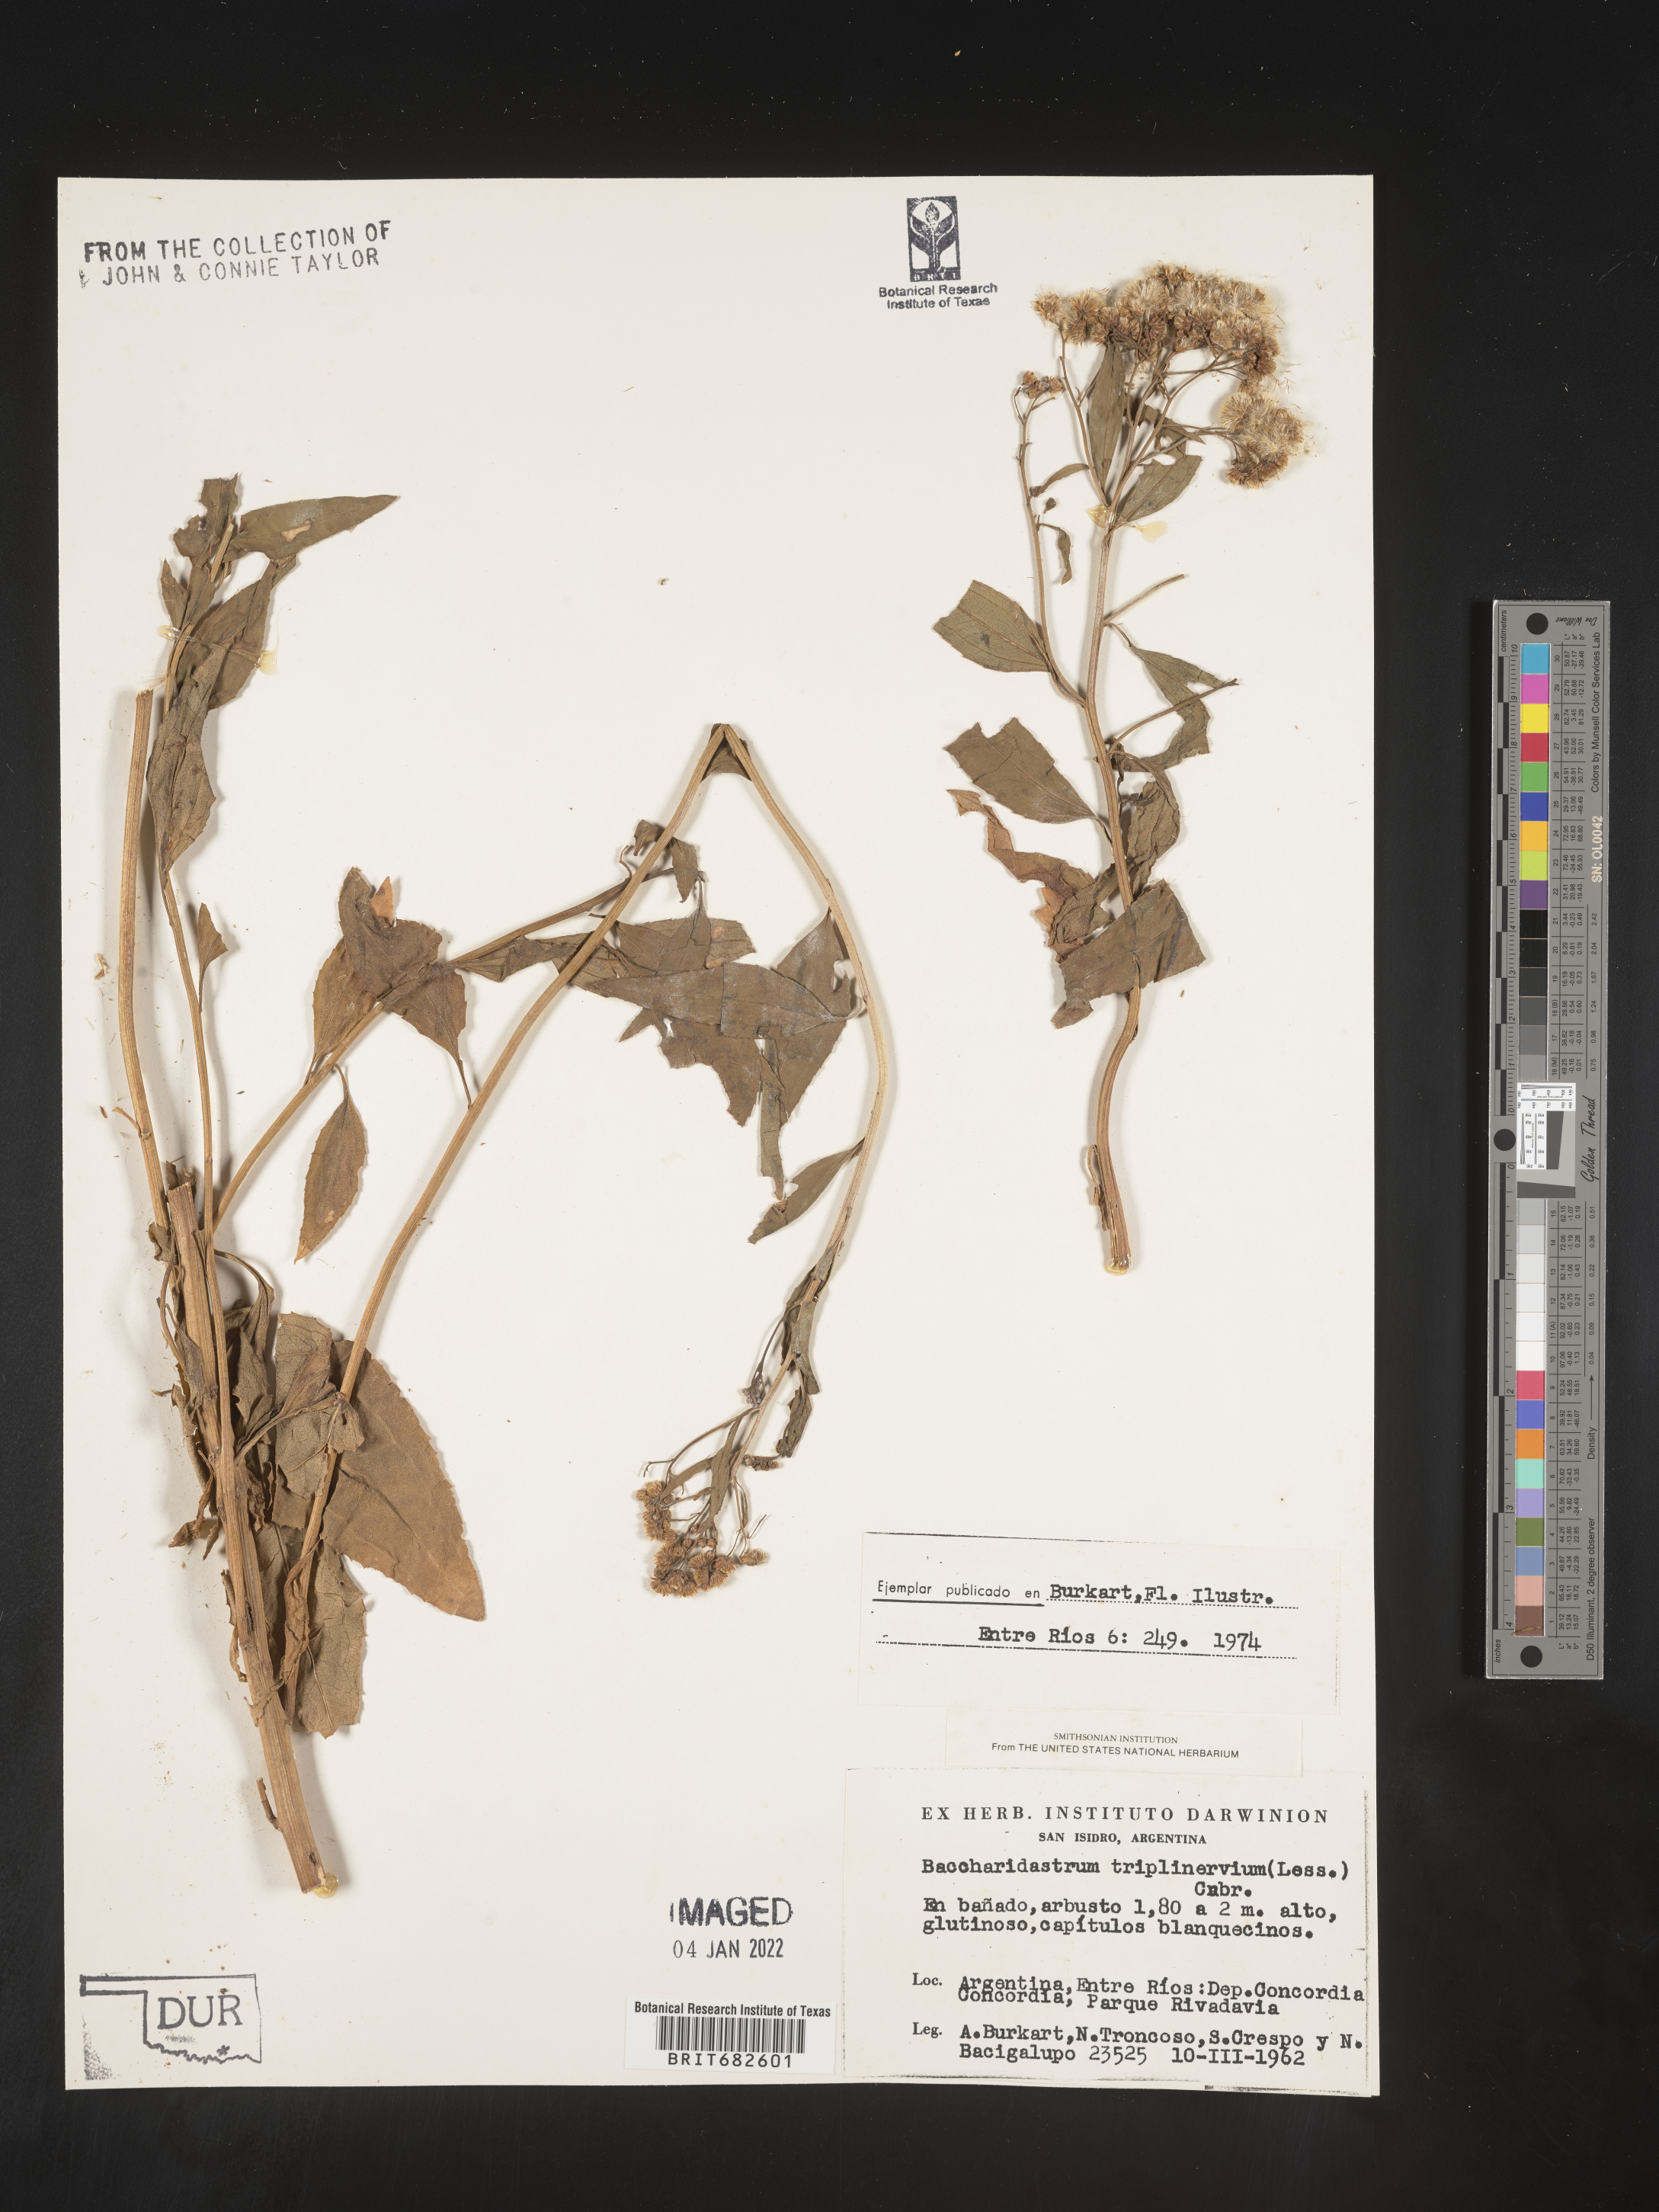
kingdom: Plantae
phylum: Tracheophyta
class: Magnoliopsida
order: Asterales
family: Asteraceae
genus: Baccharis
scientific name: Baccharis
